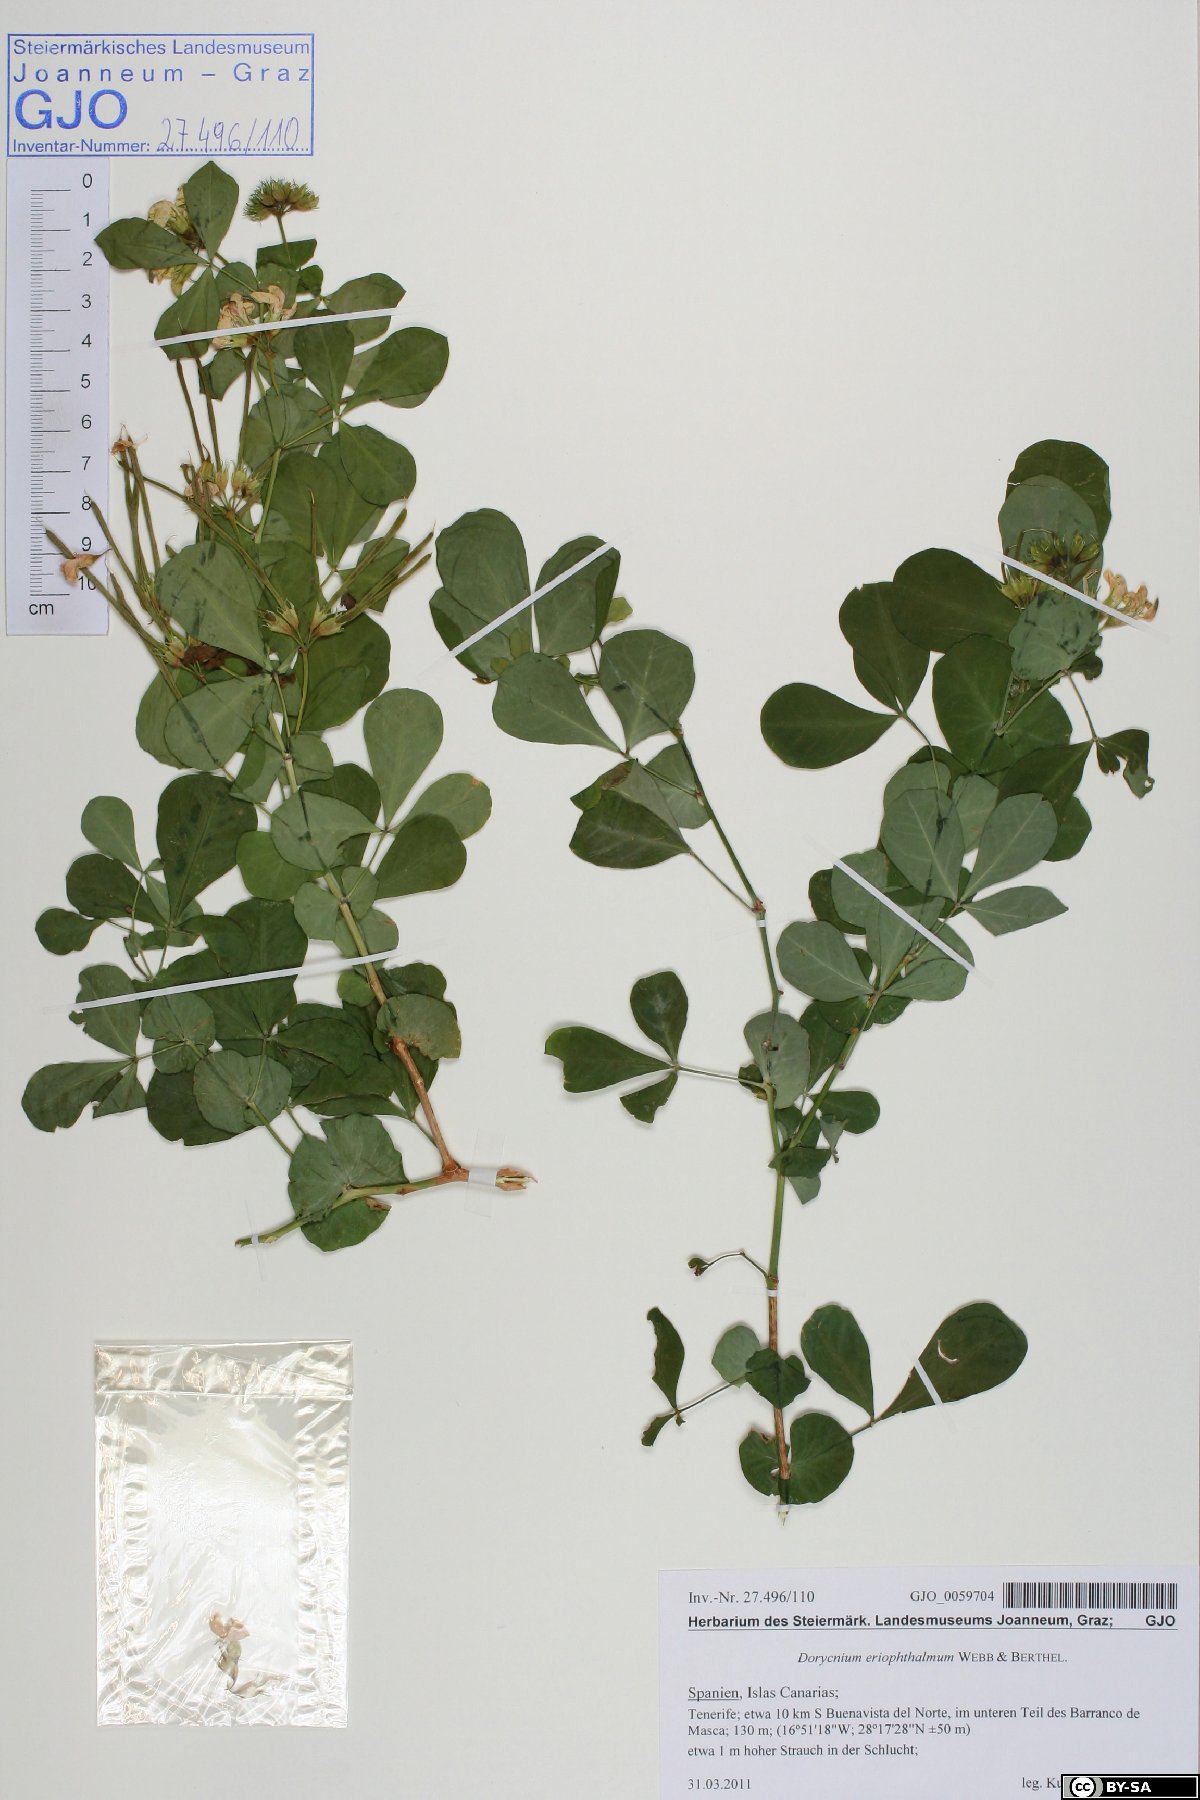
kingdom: Plantae
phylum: Tracheophyta
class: Magnoliopsida
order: Fabales
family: Fabaceae
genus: Lotus
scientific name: Lotus eriophthalmus
